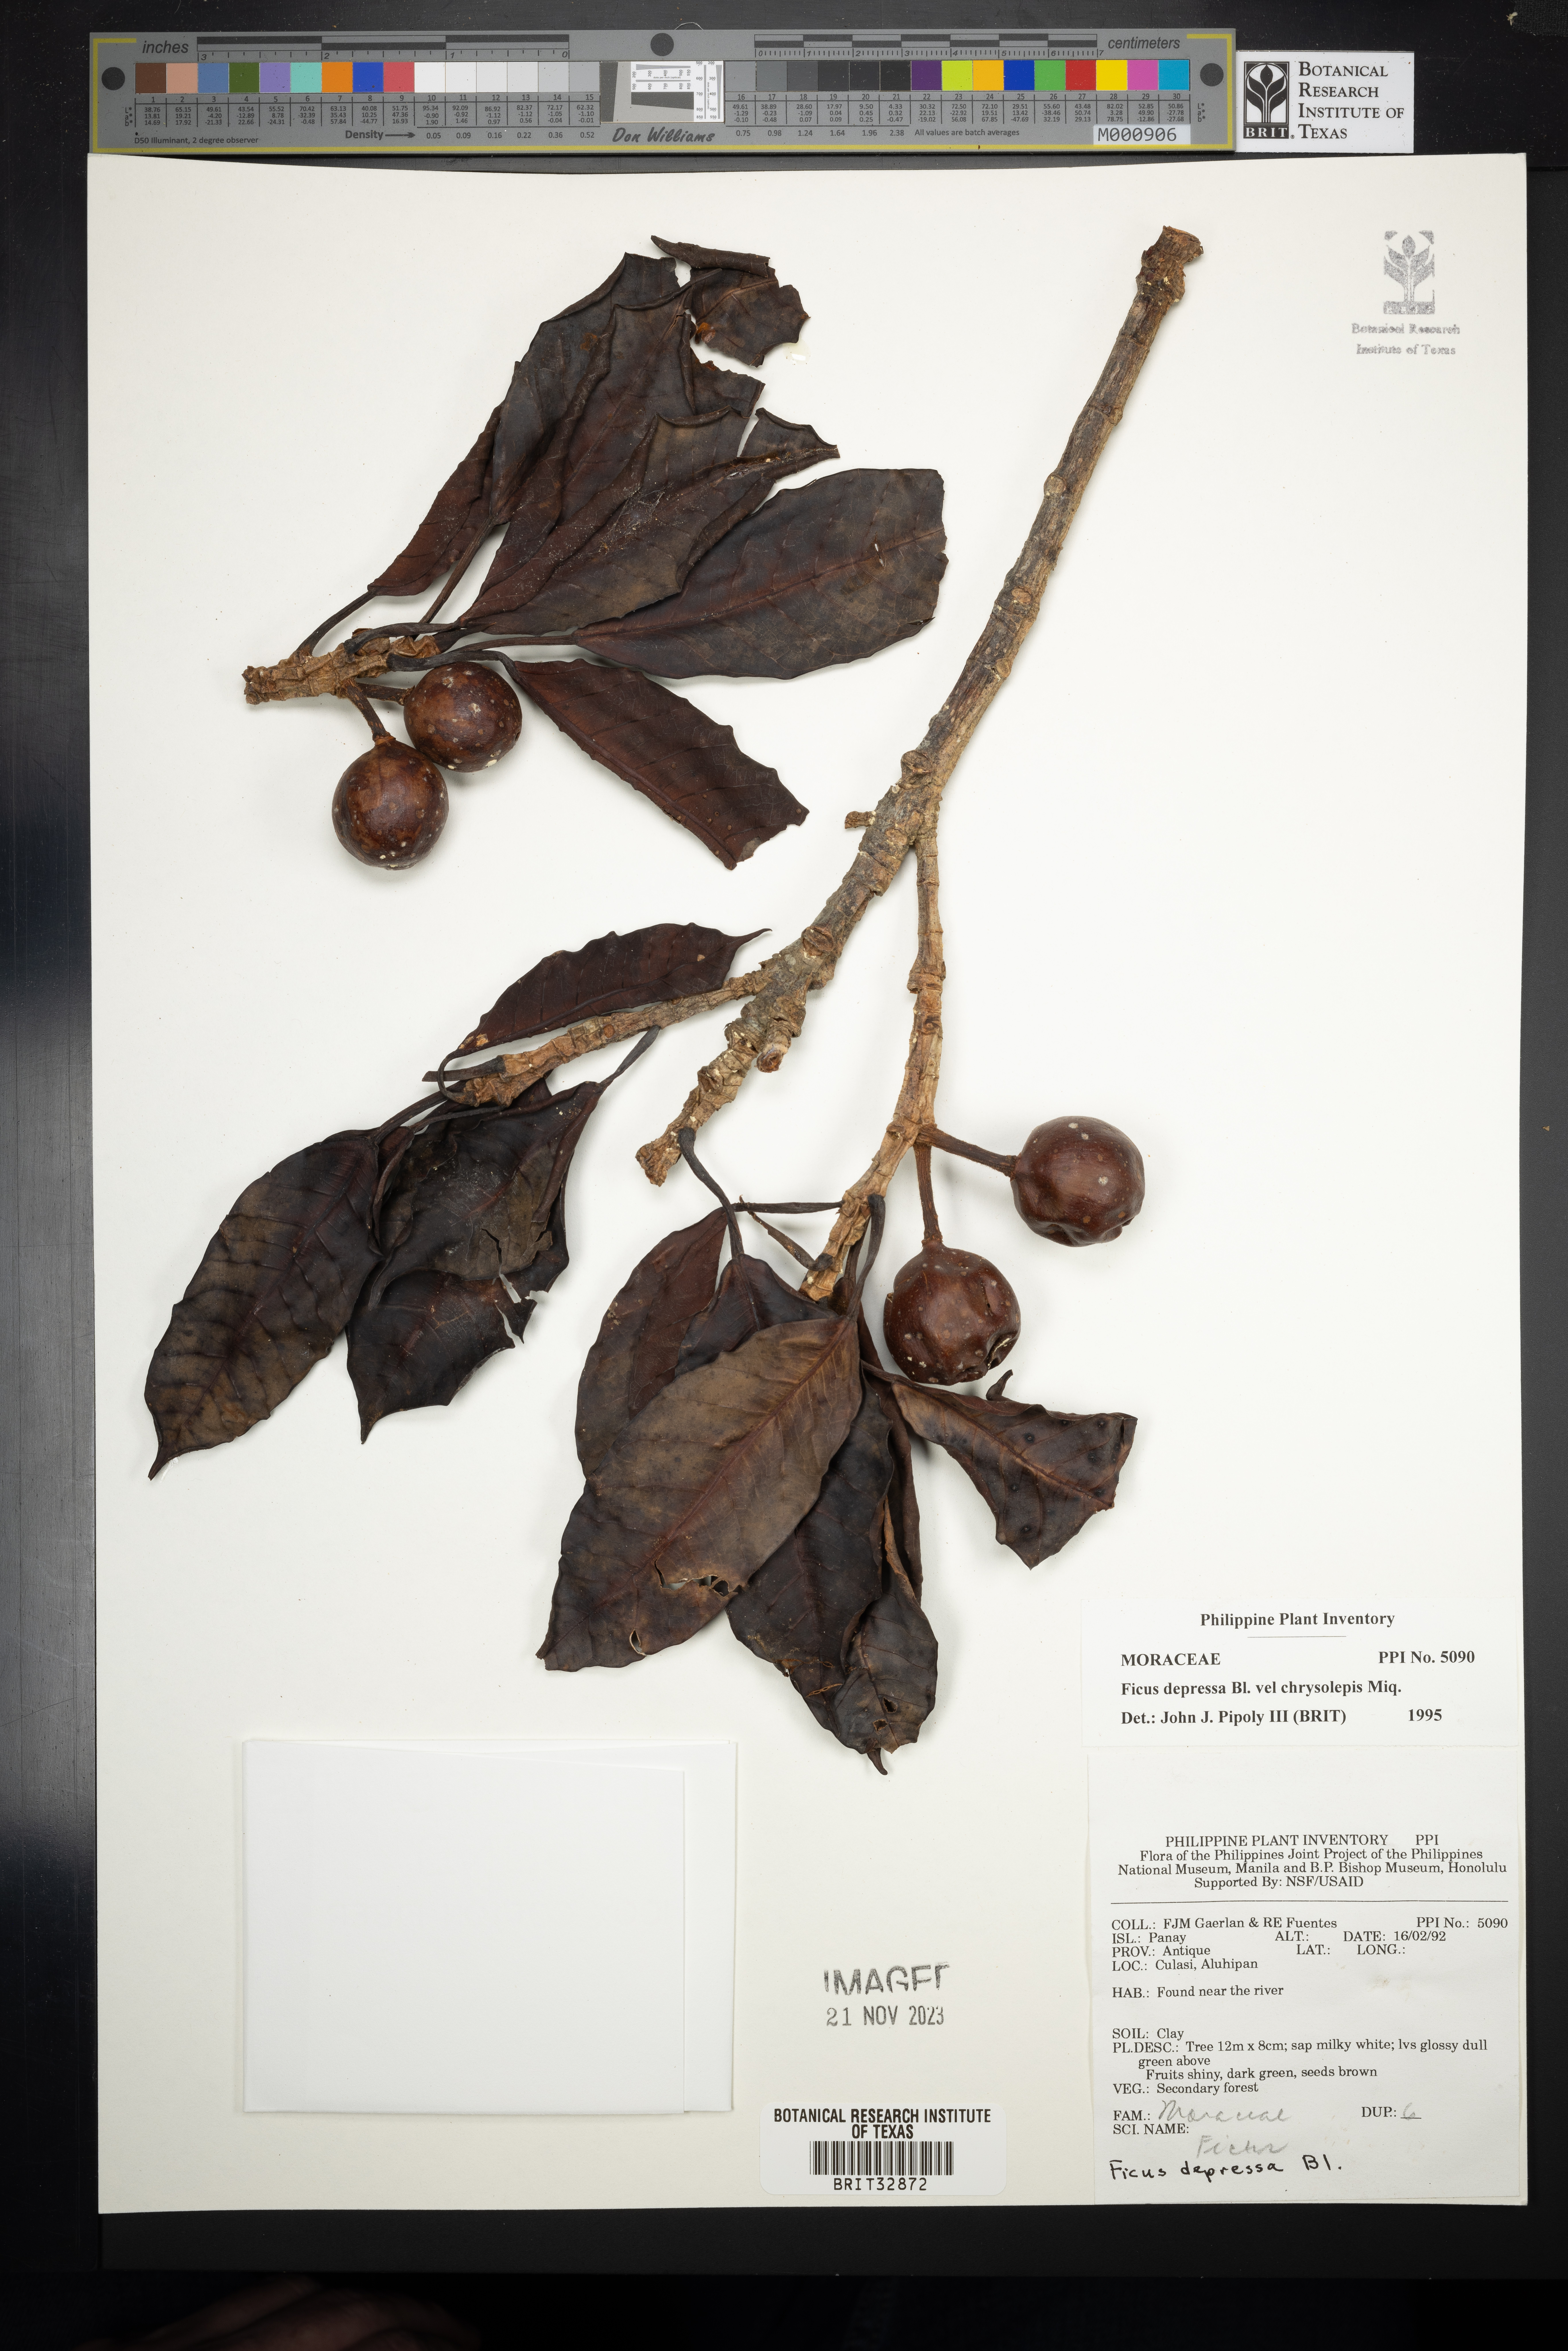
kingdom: Plantae
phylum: Tracheophyta
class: Magnoliopsida
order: Rosales
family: Moraceae
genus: Ficus
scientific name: Ficus depressa
